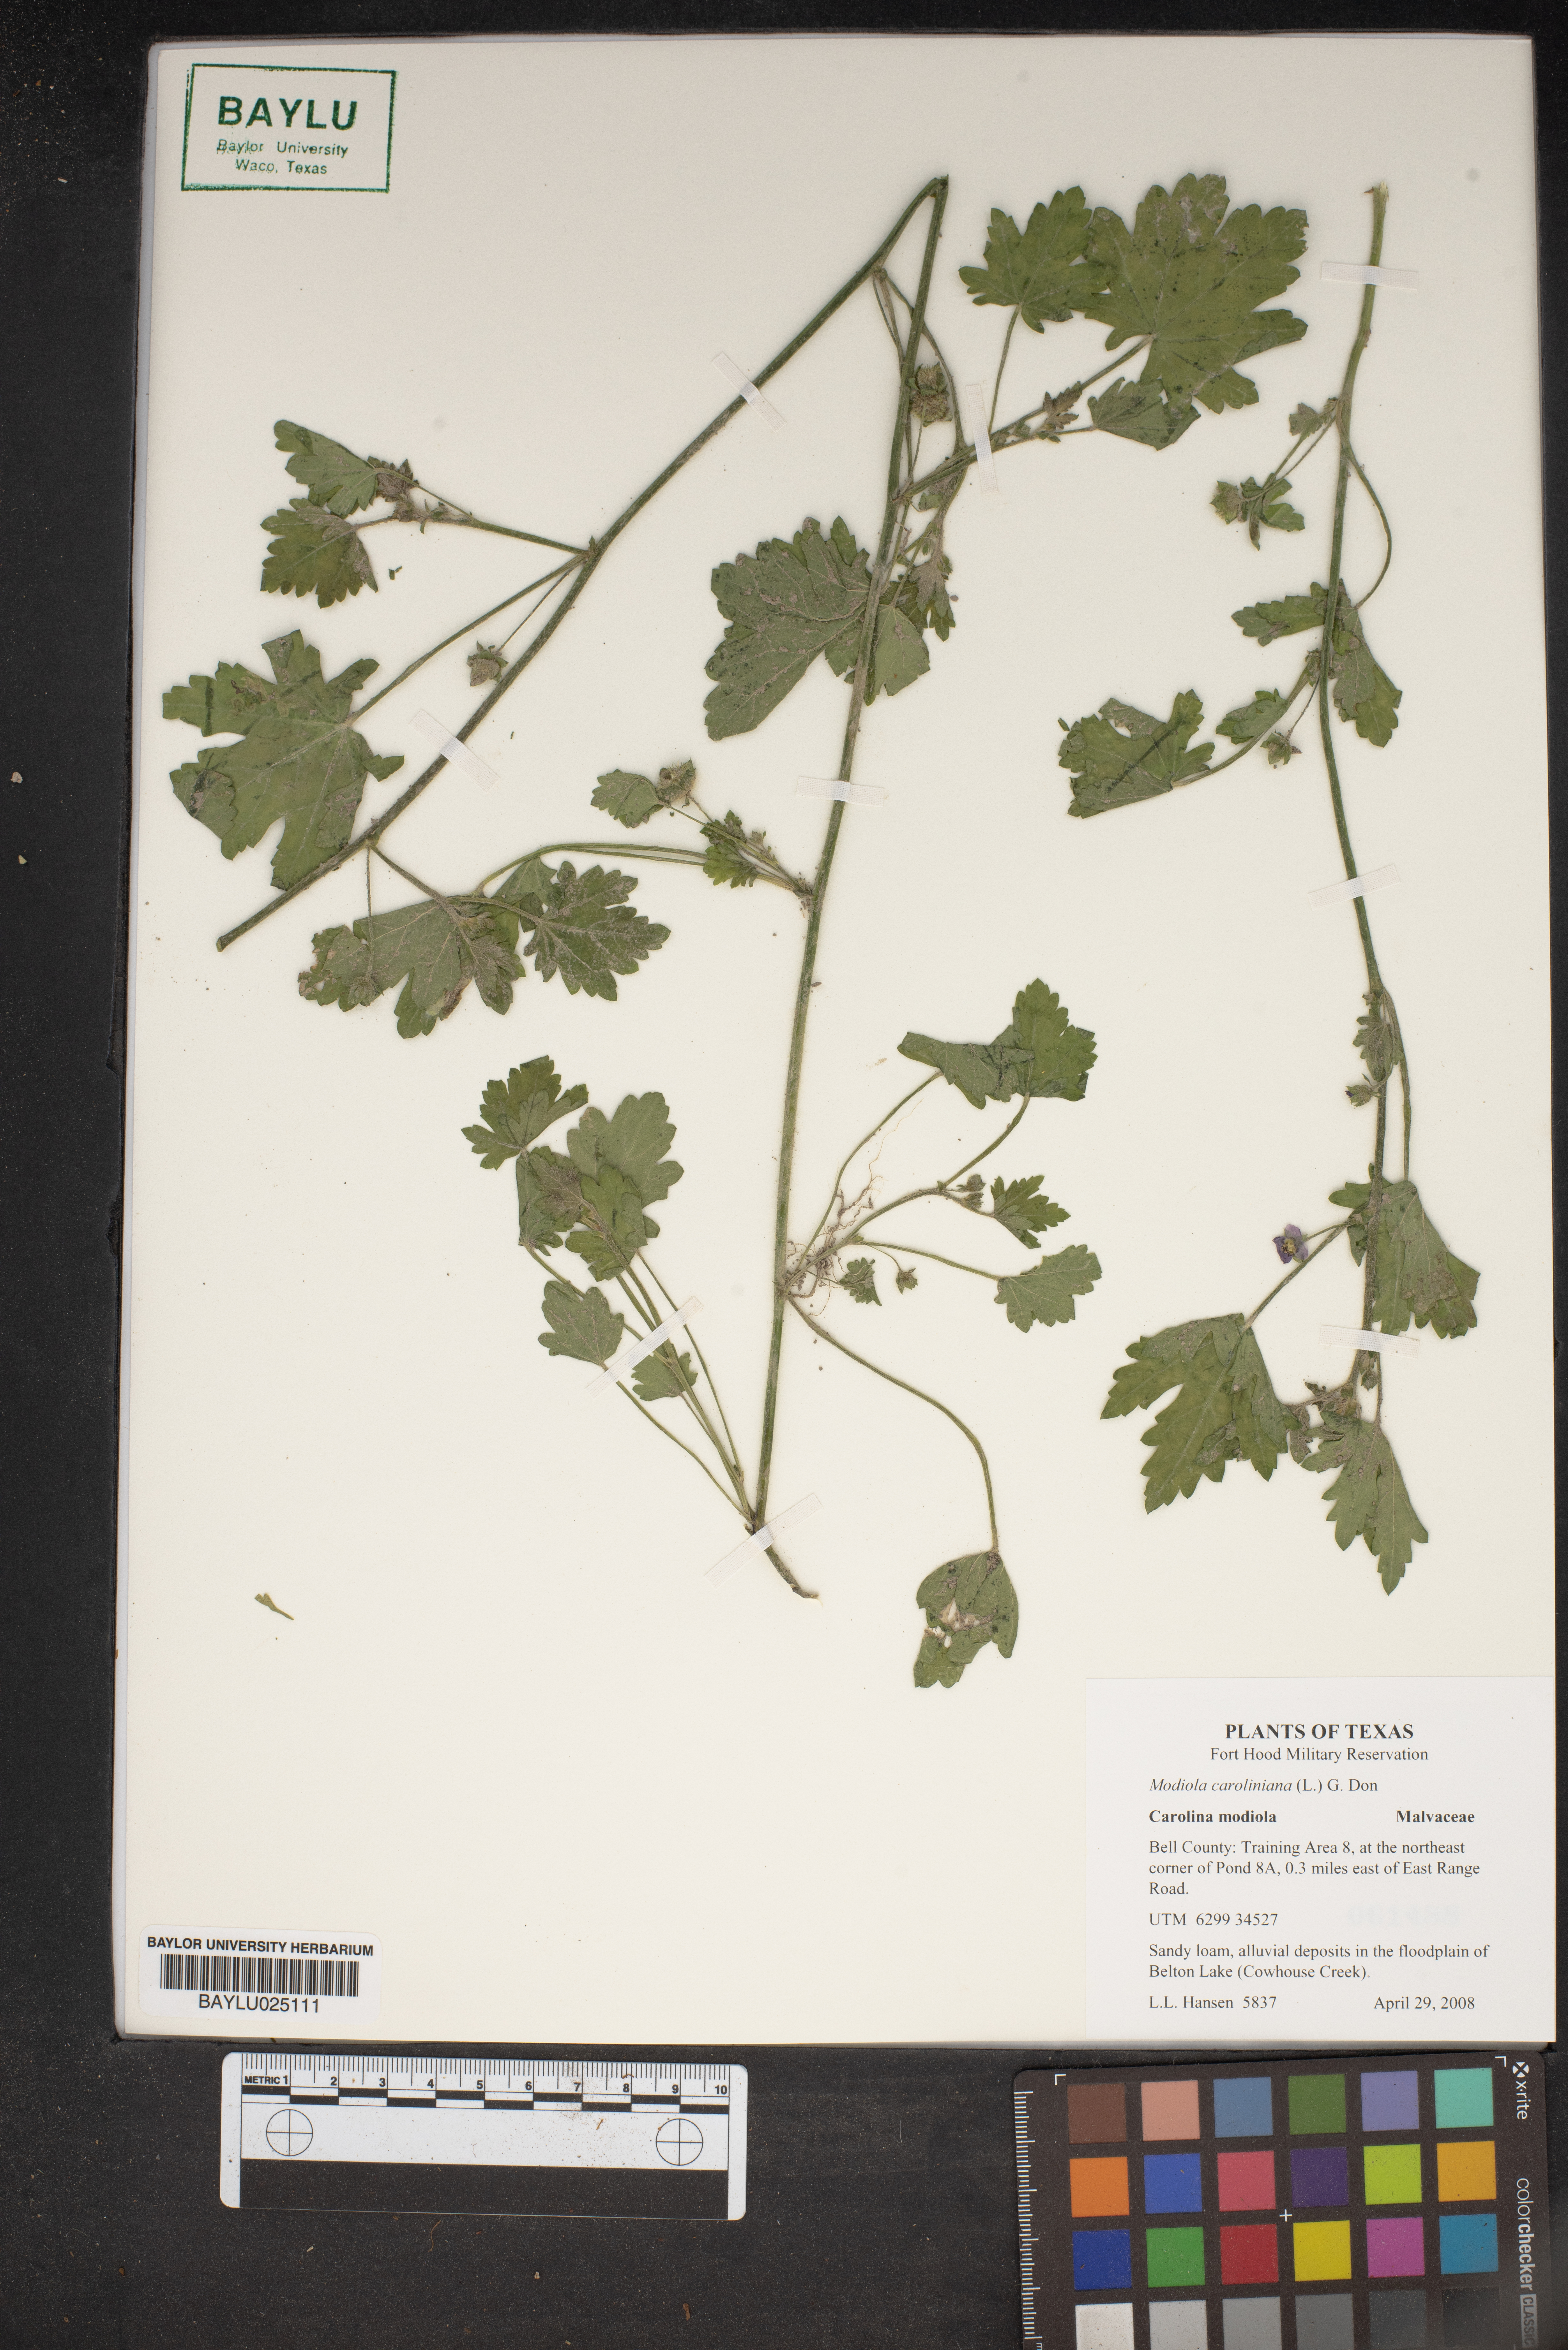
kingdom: Plantae
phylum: Tracheophyta
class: Magnoliopsida
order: Malvales
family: Malvaceae
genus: Modiola
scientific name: Modiola caroliniana
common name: Carolina bristlemallow
